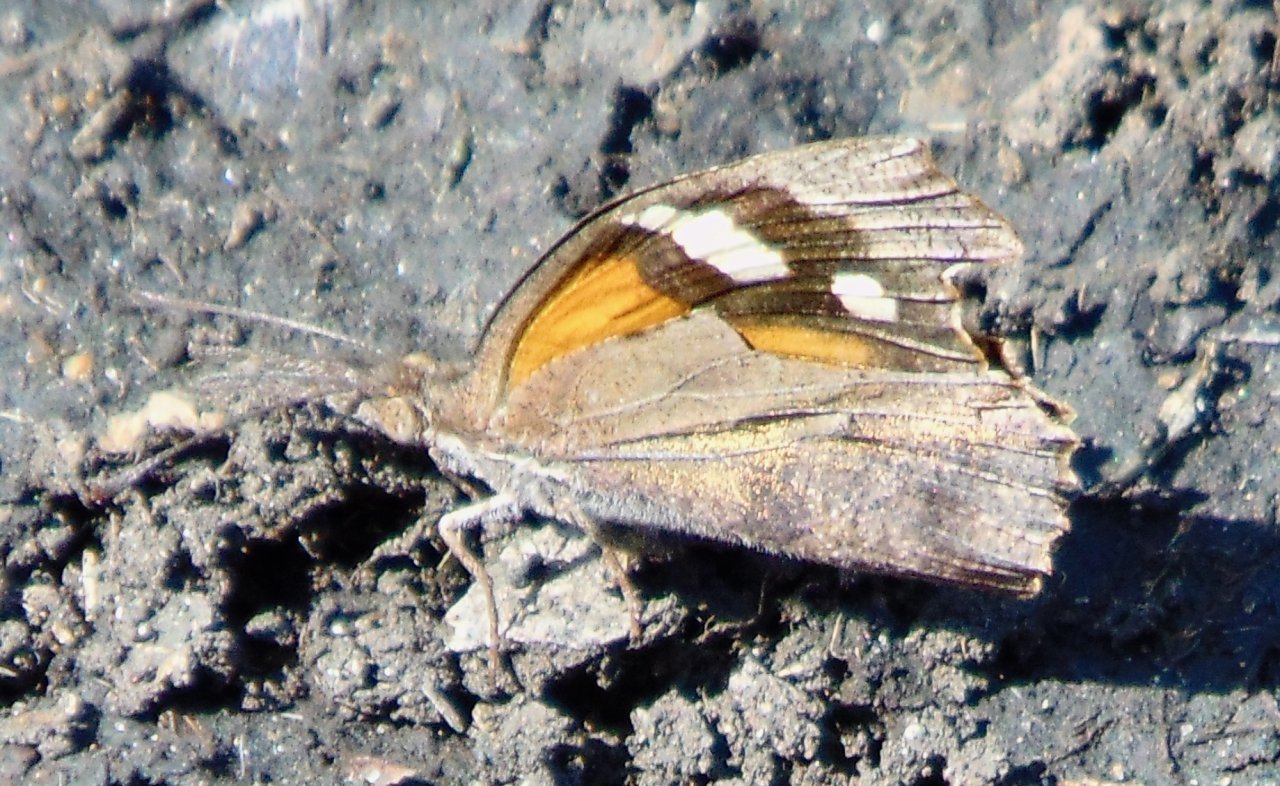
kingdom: Animalia
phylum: Arthropoda
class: Insecta
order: Lepidoptera
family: Nymphalidae
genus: Libytheana
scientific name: Libytheana carinenta
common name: American Snout
